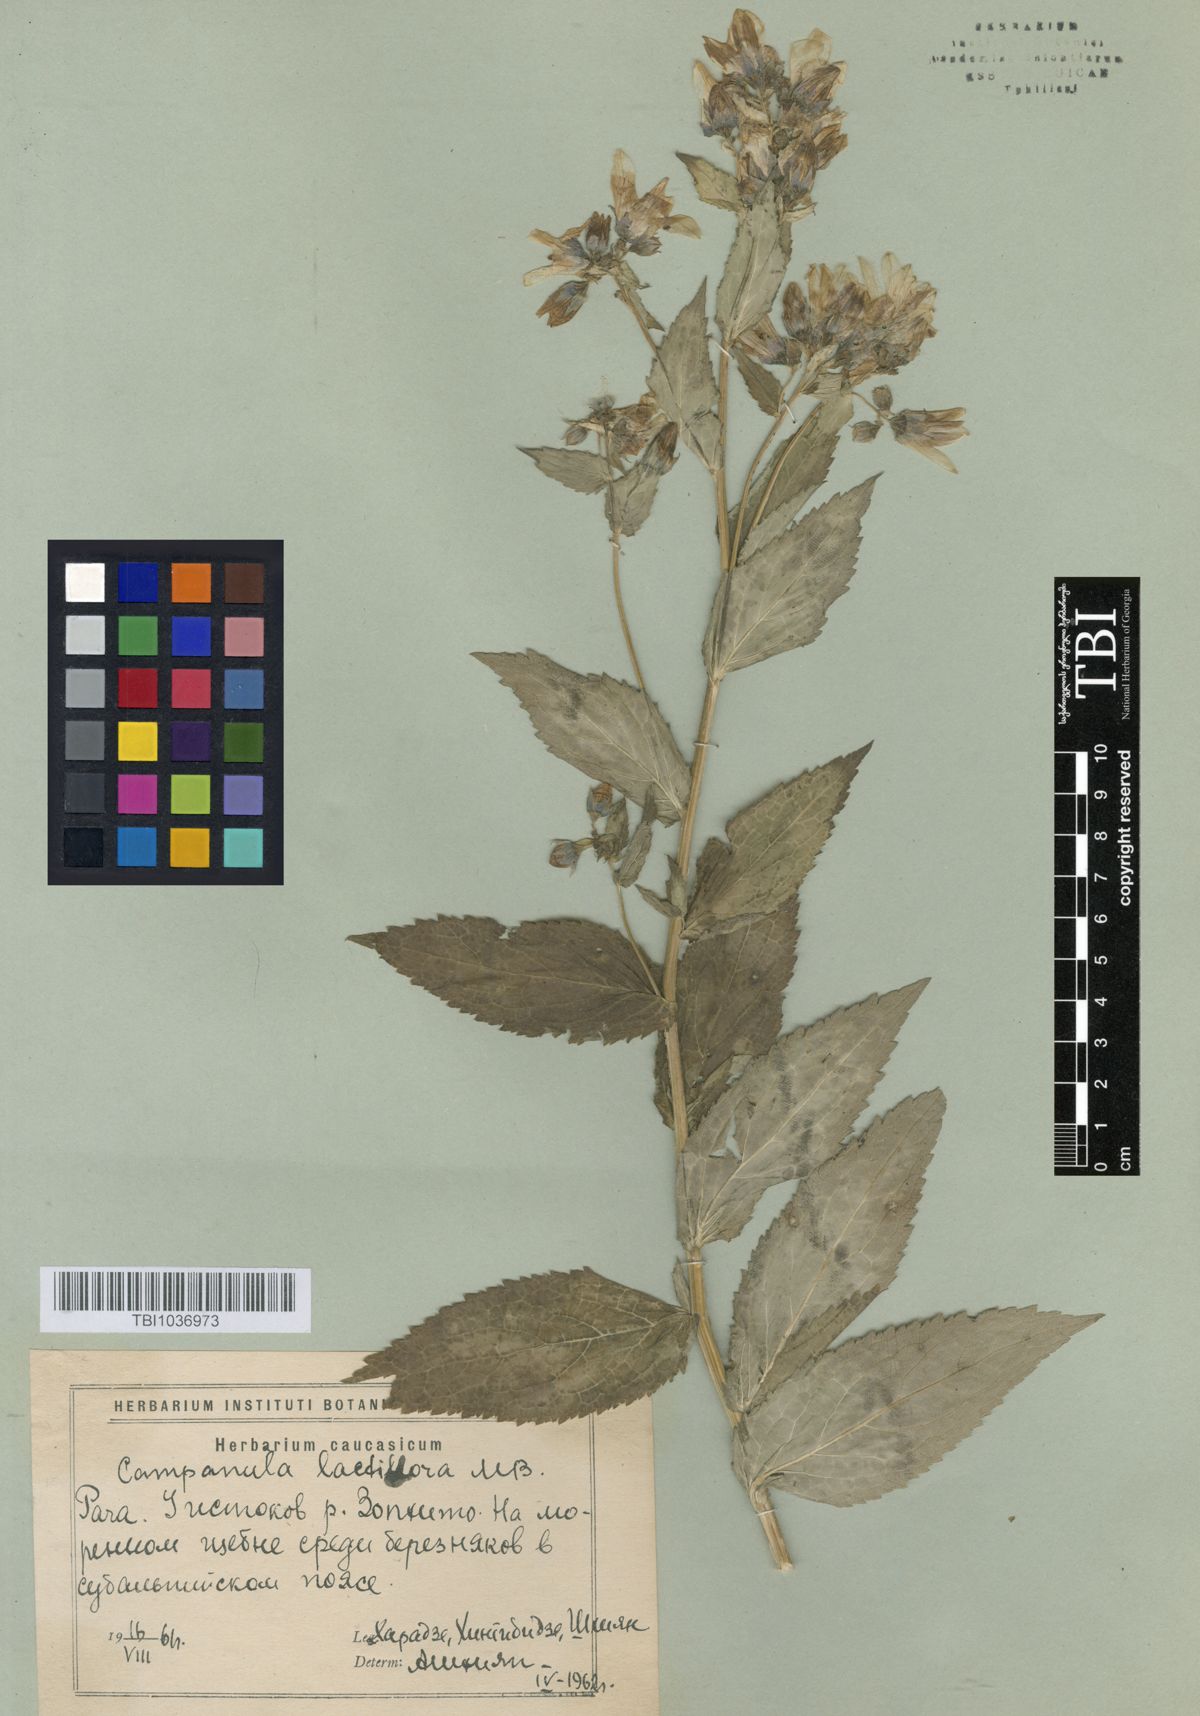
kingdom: Plantae
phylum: Tracheophyta
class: Magnoliopsida
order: Asterales
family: Campanulaceae
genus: Campanula
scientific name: Campanula lactiflora
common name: Milky bellflower
